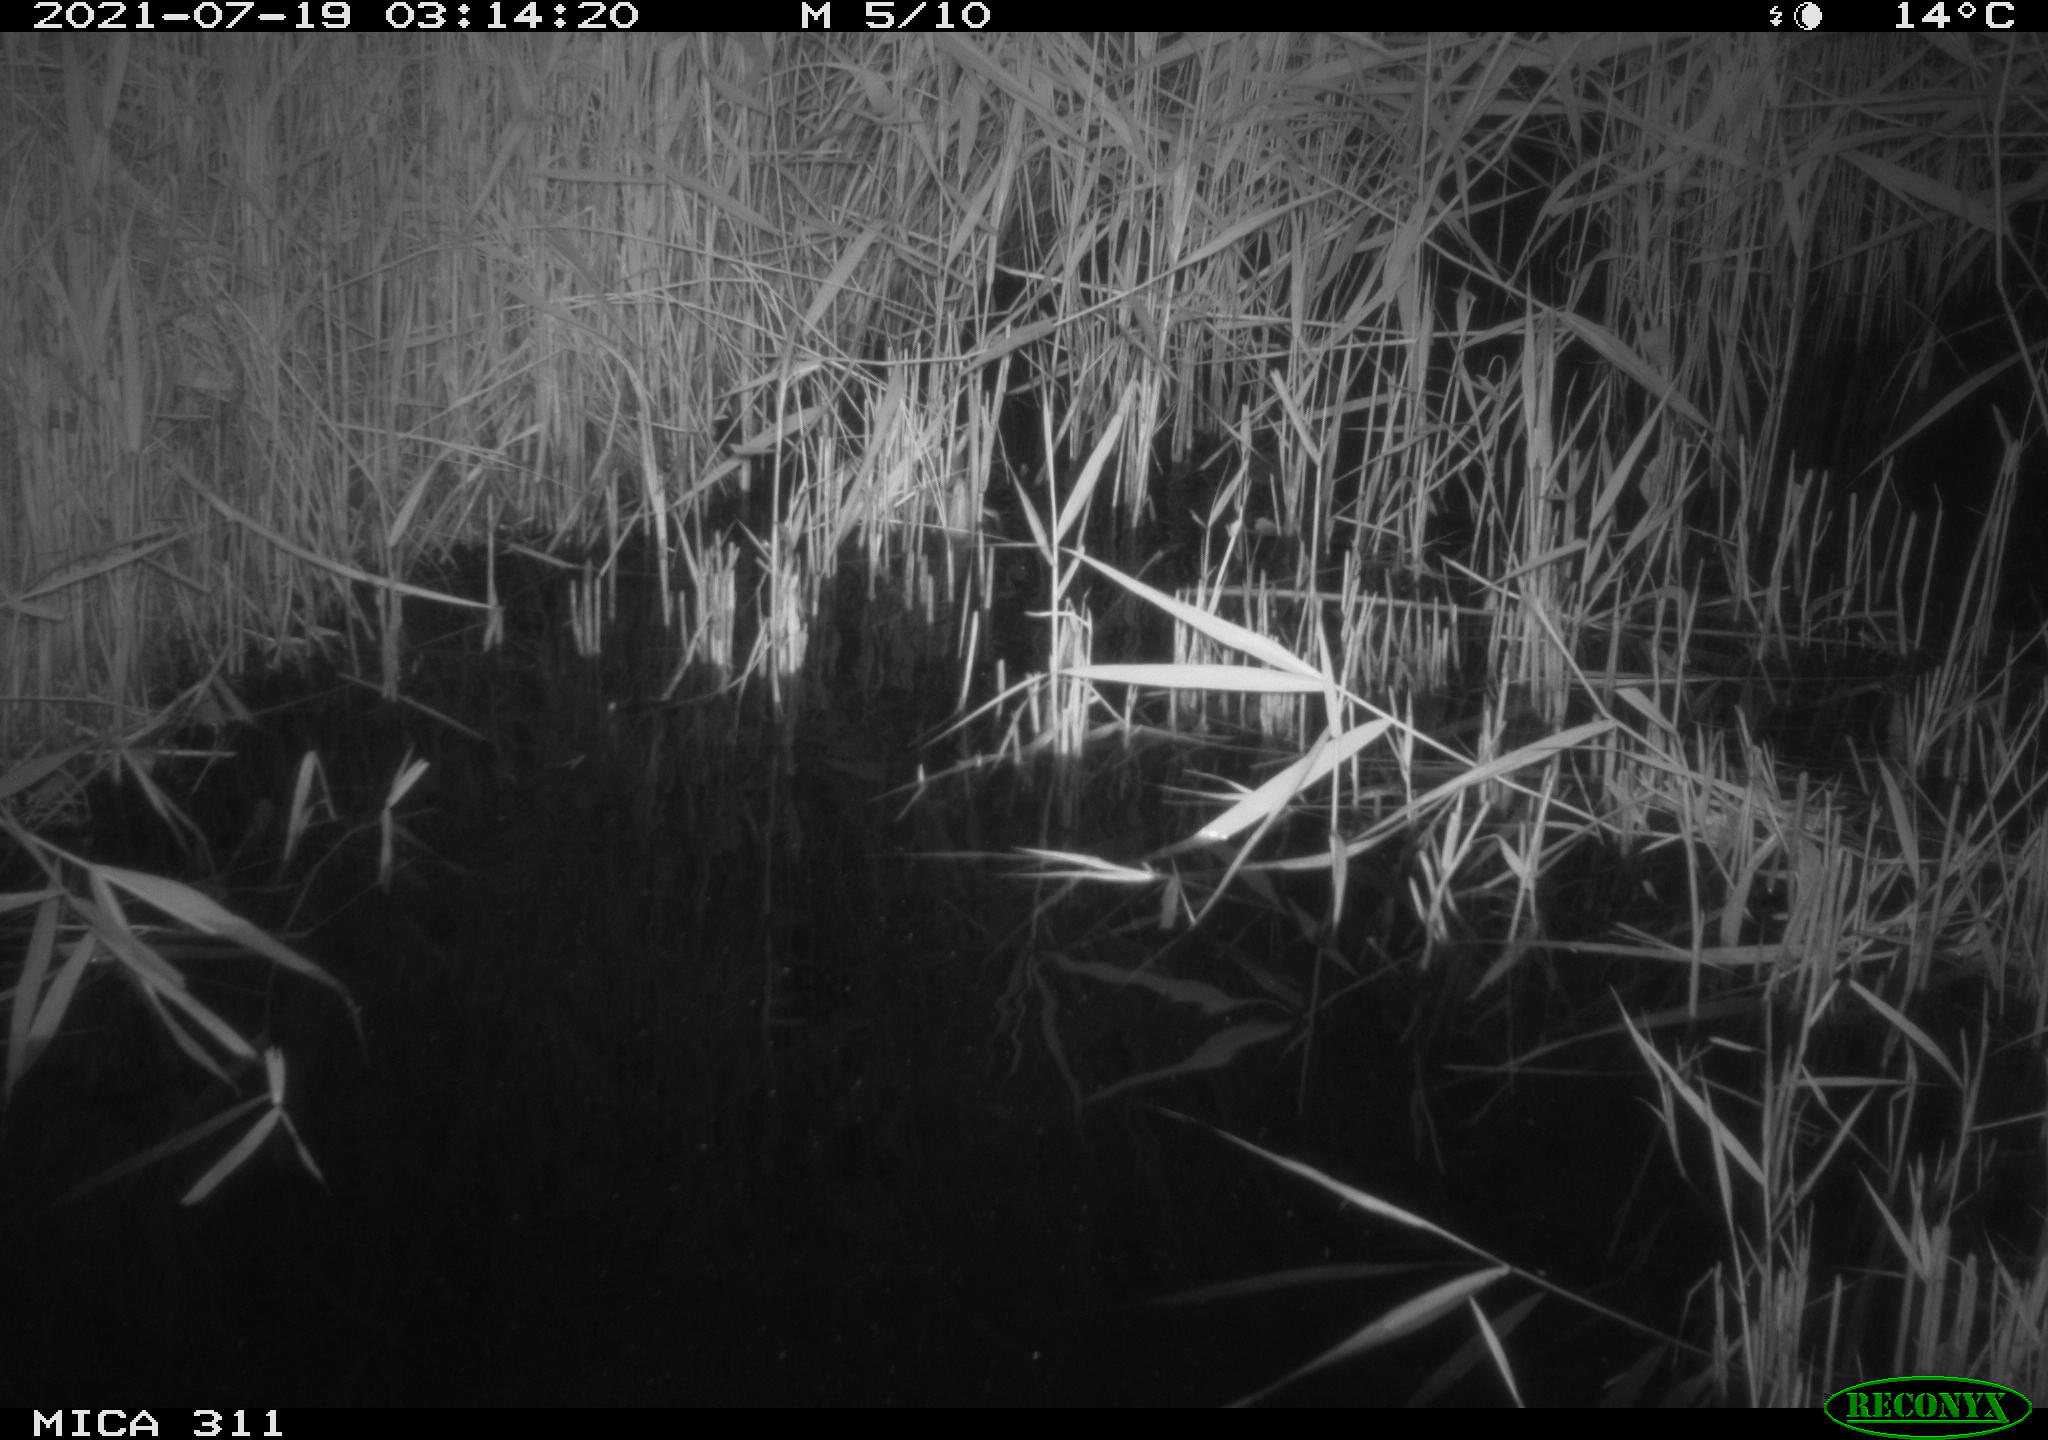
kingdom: Animalia
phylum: Chordata
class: Mammalia
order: Rodentia
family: Muridae
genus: Rattus
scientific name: Rattus norvegicus
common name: Brown rat
